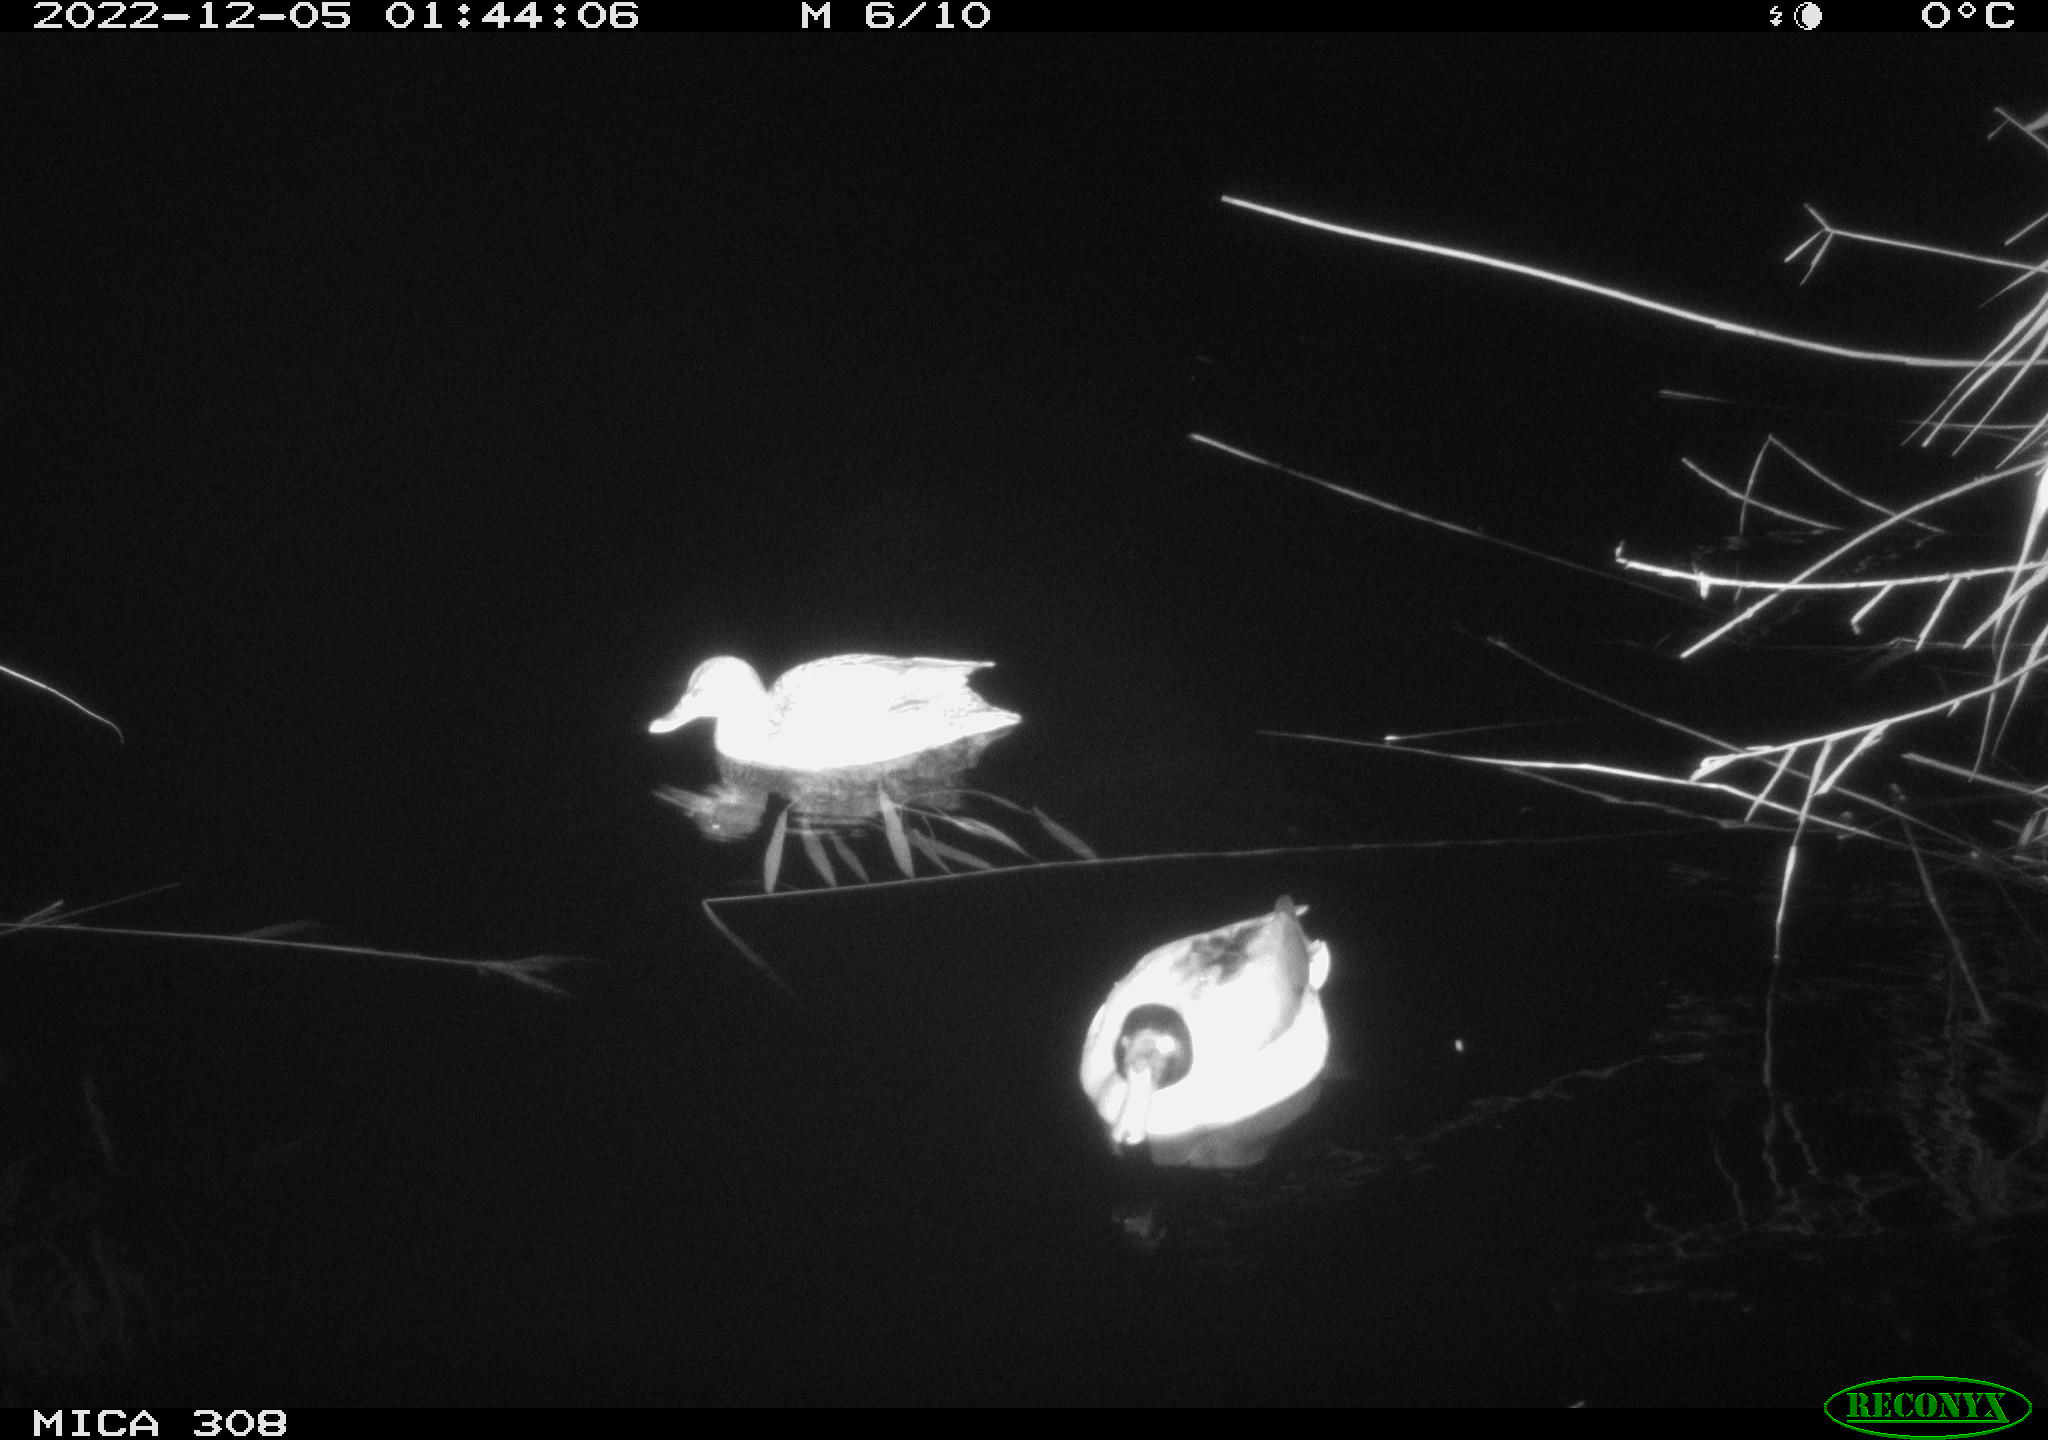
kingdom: Animalia
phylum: Chordata
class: Aves
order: Anseriformes
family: Anatidae
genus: Anas
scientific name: Anas
